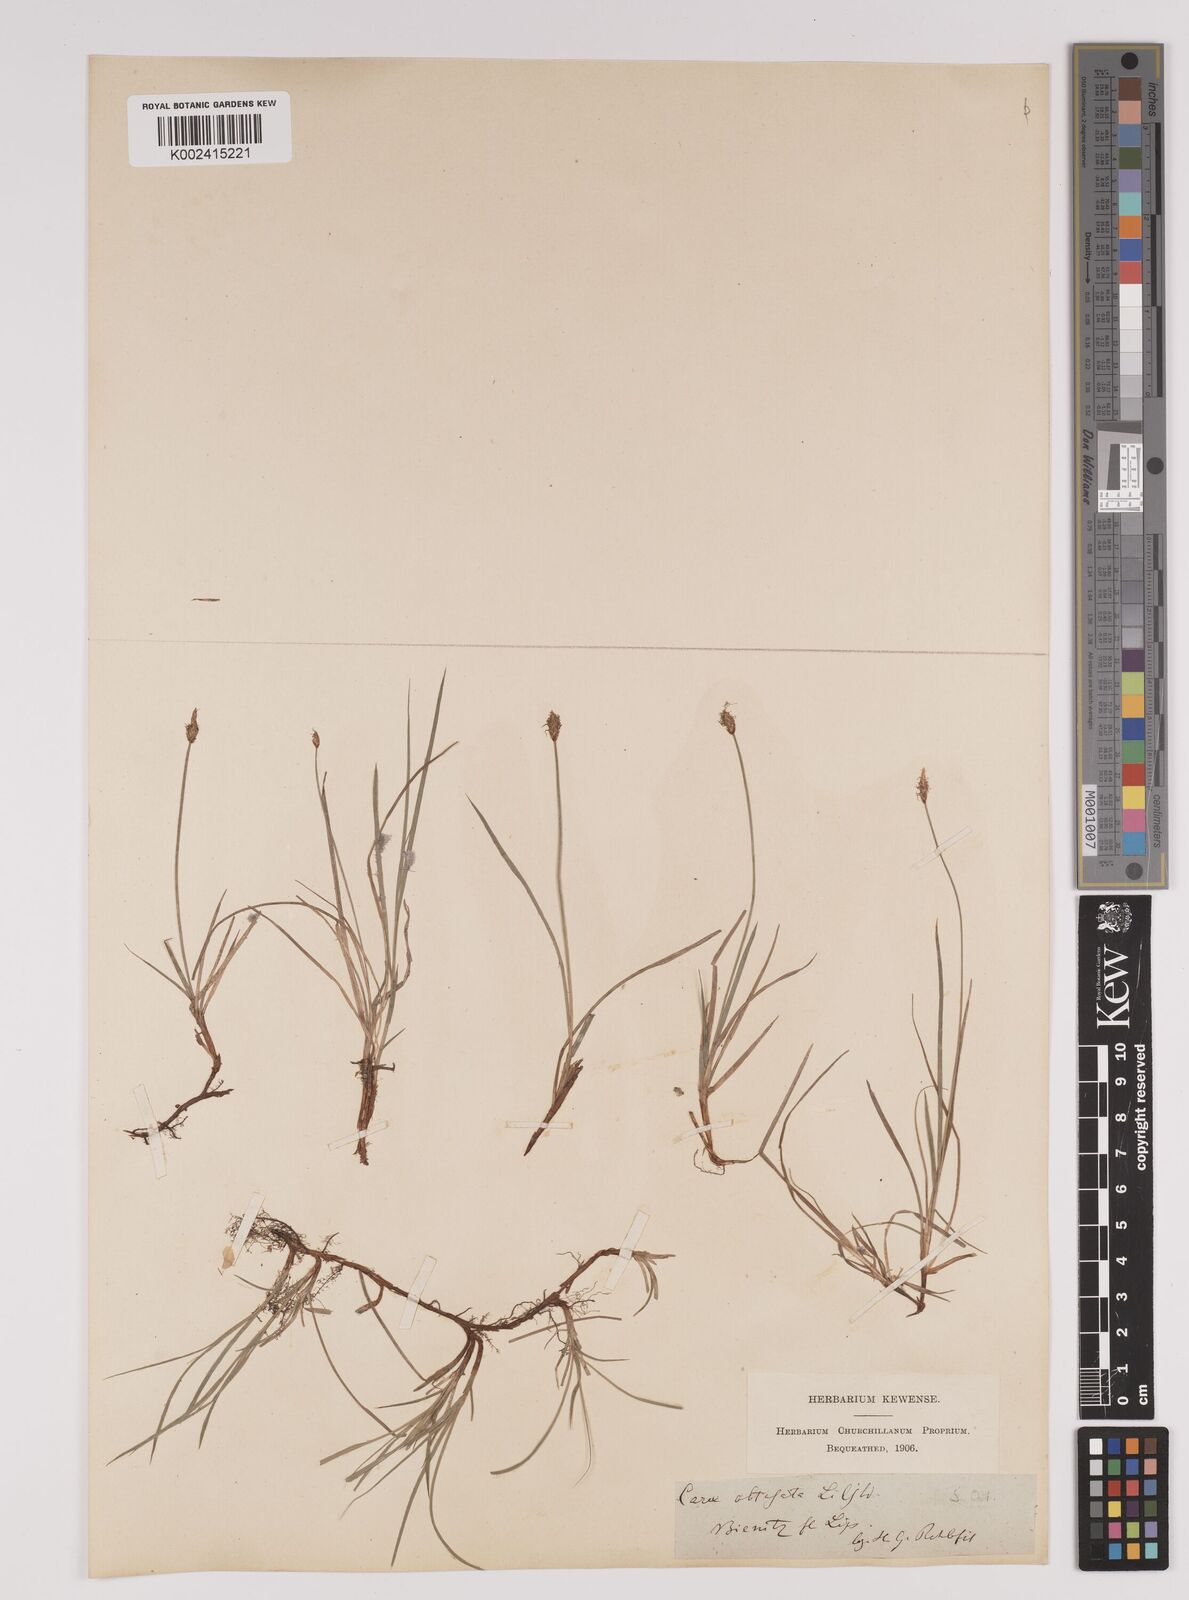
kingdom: Plantae
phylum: Tracheophyta
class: Liliopsida
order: Poales
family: Cyperaceae
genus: Carex
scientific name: Carex obtusata
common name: Blunt sedge
